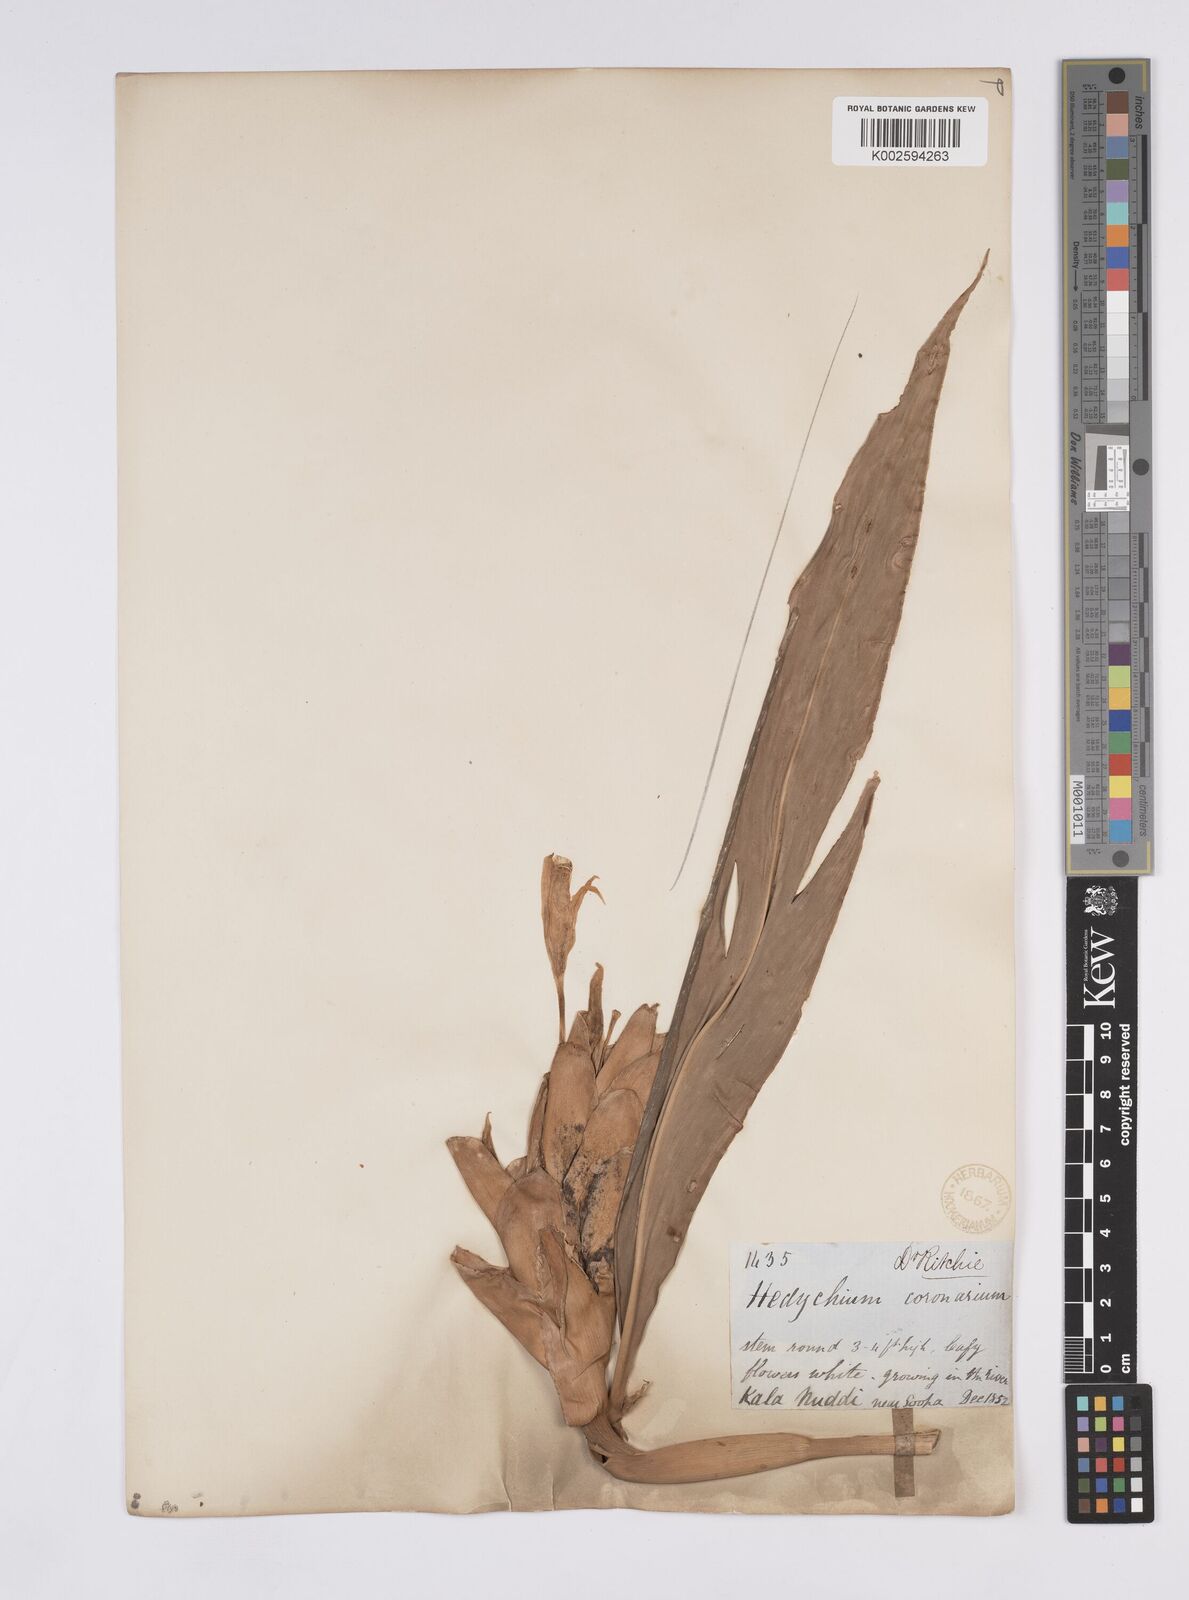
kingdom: Plantae
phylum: Tracheophyta
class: Liliopsida
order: Zingiberales
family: Zingiberaceae
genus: Hedychium
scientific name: Hedychium coronarium
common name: White garland-lily
